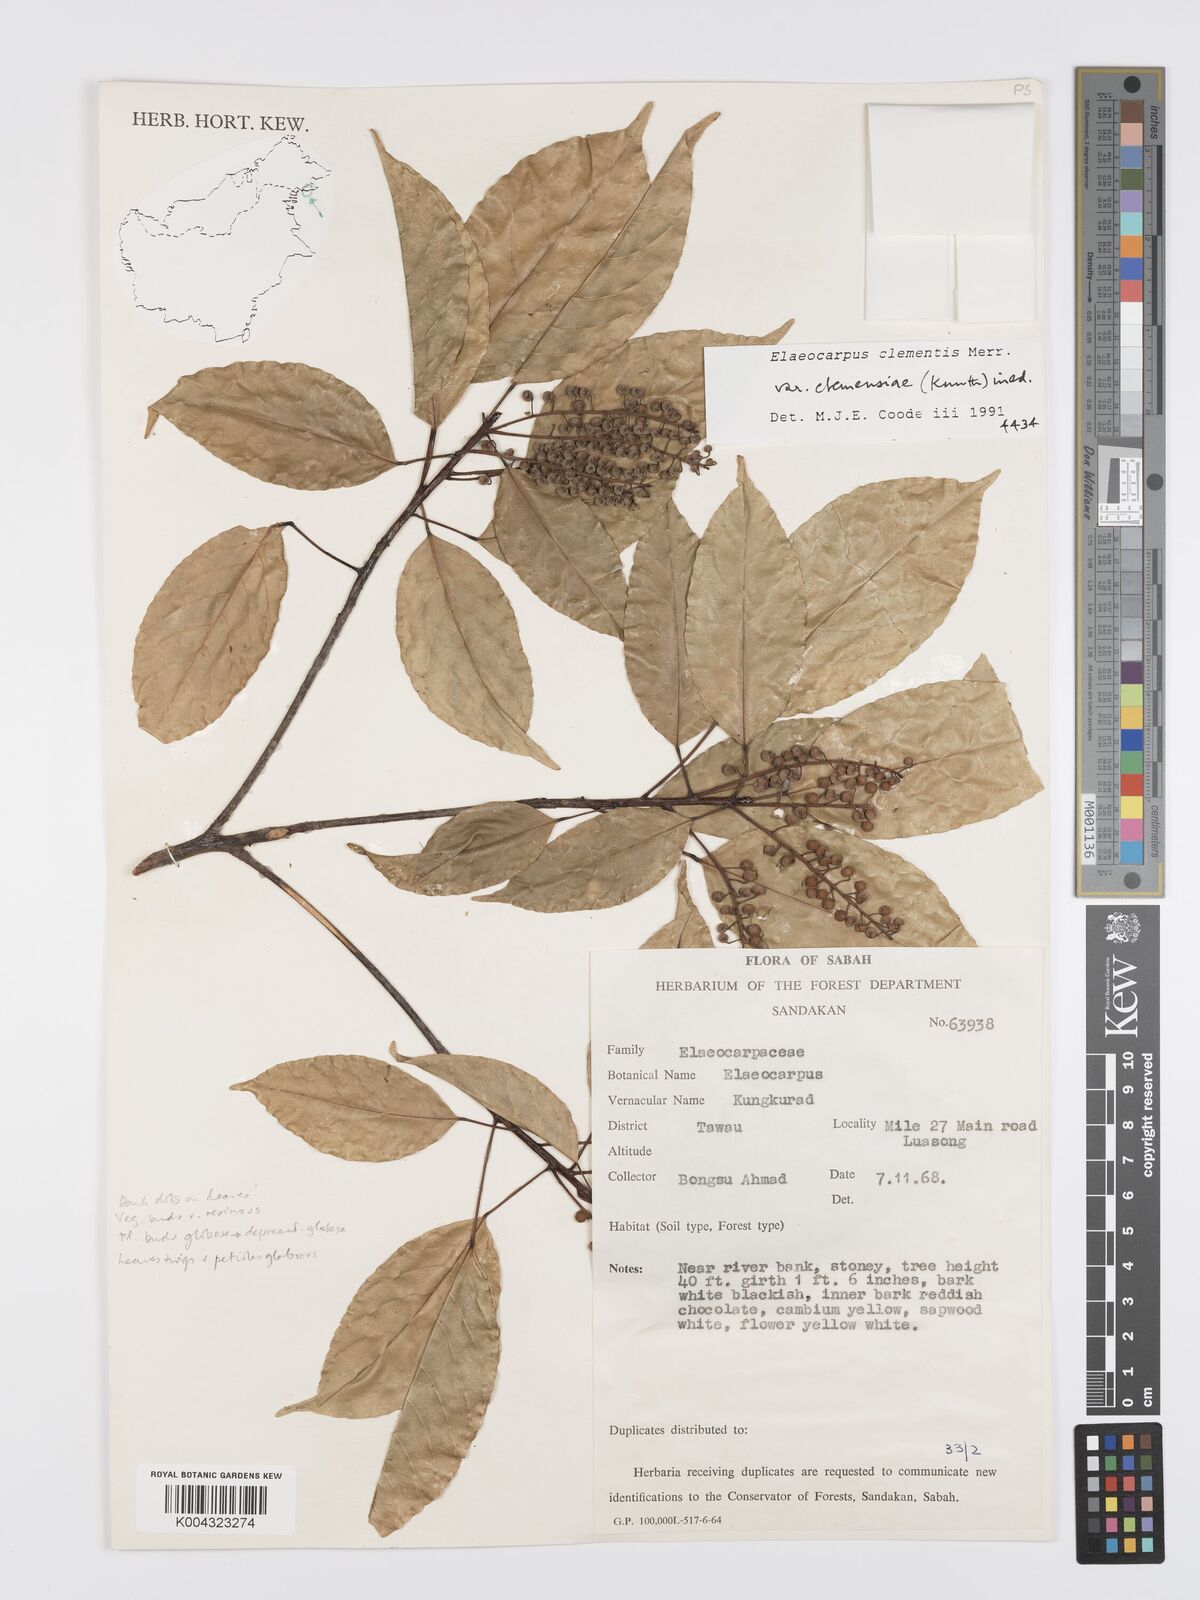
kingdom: Plantae
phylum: Tracheophyta
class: Magnoliopsida
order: Oxalidales
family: Elaeocarpaceae
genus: Elaeocarpus
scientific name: Elaeocarpus clementis
